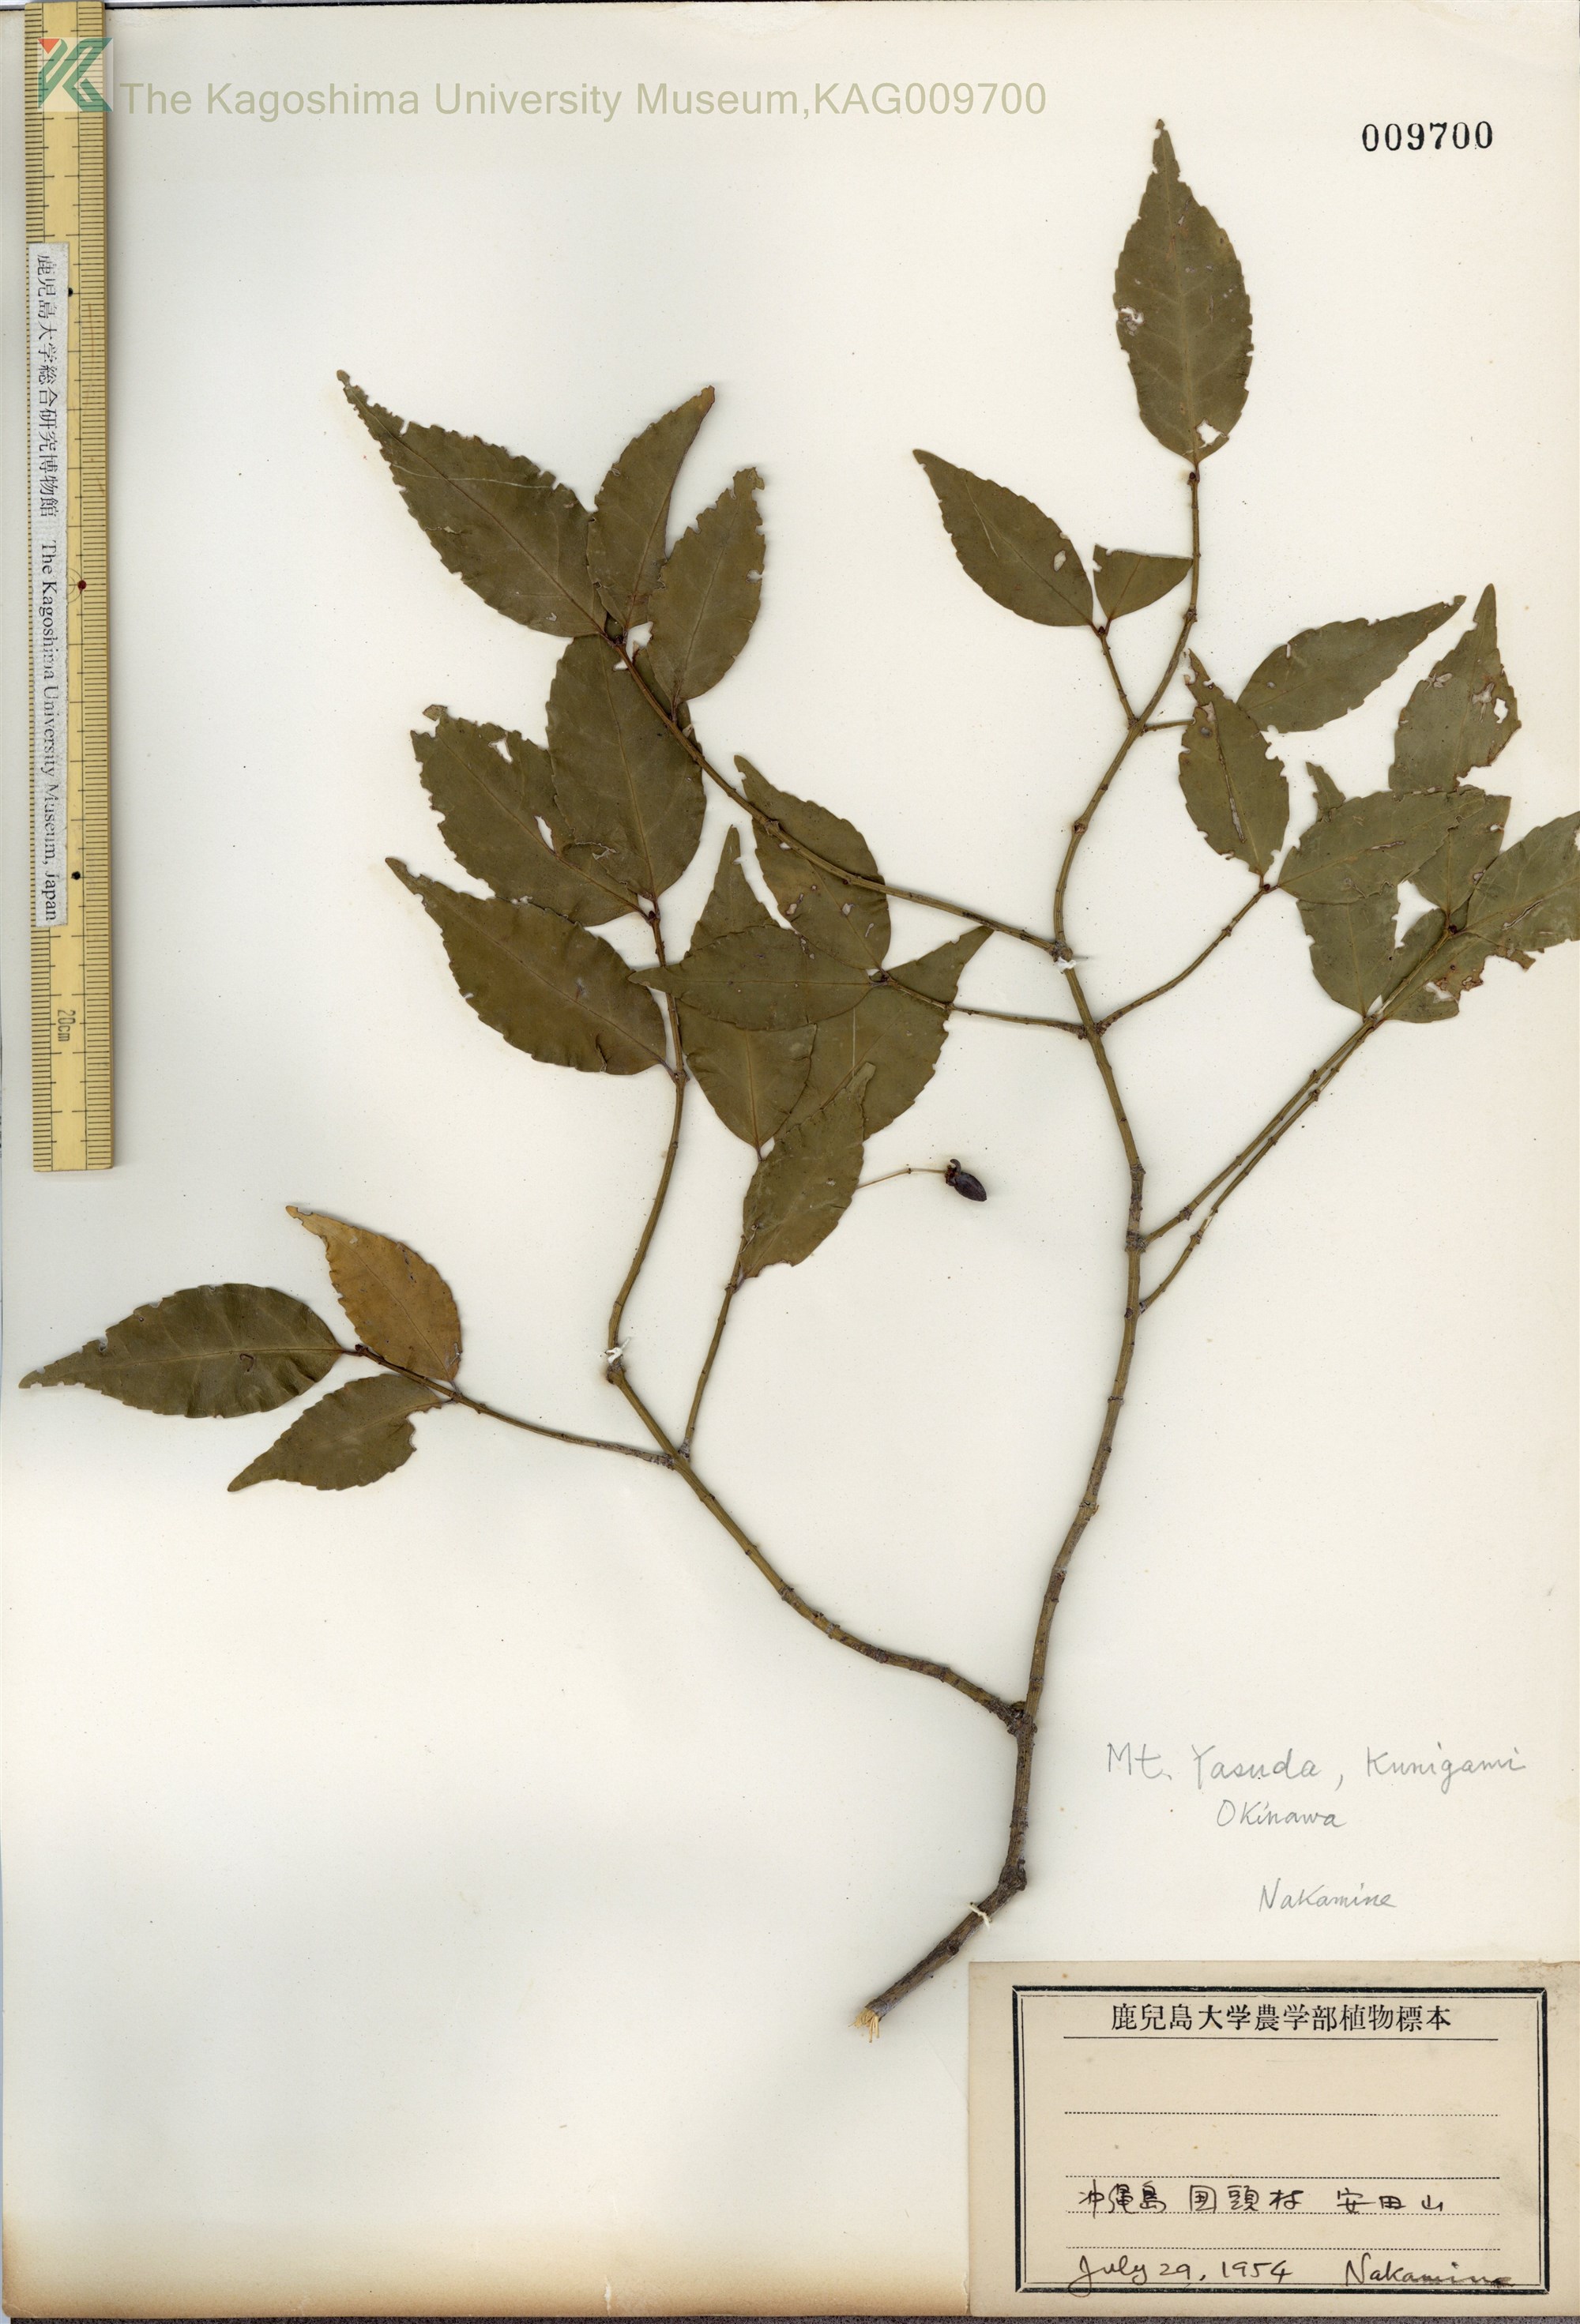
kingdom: Plantae
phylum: Tracheophyta
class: Magnoliopsida
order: Celastrales
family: Celastraceae
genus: Euonymus
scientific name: Euonymus lutchuensis
